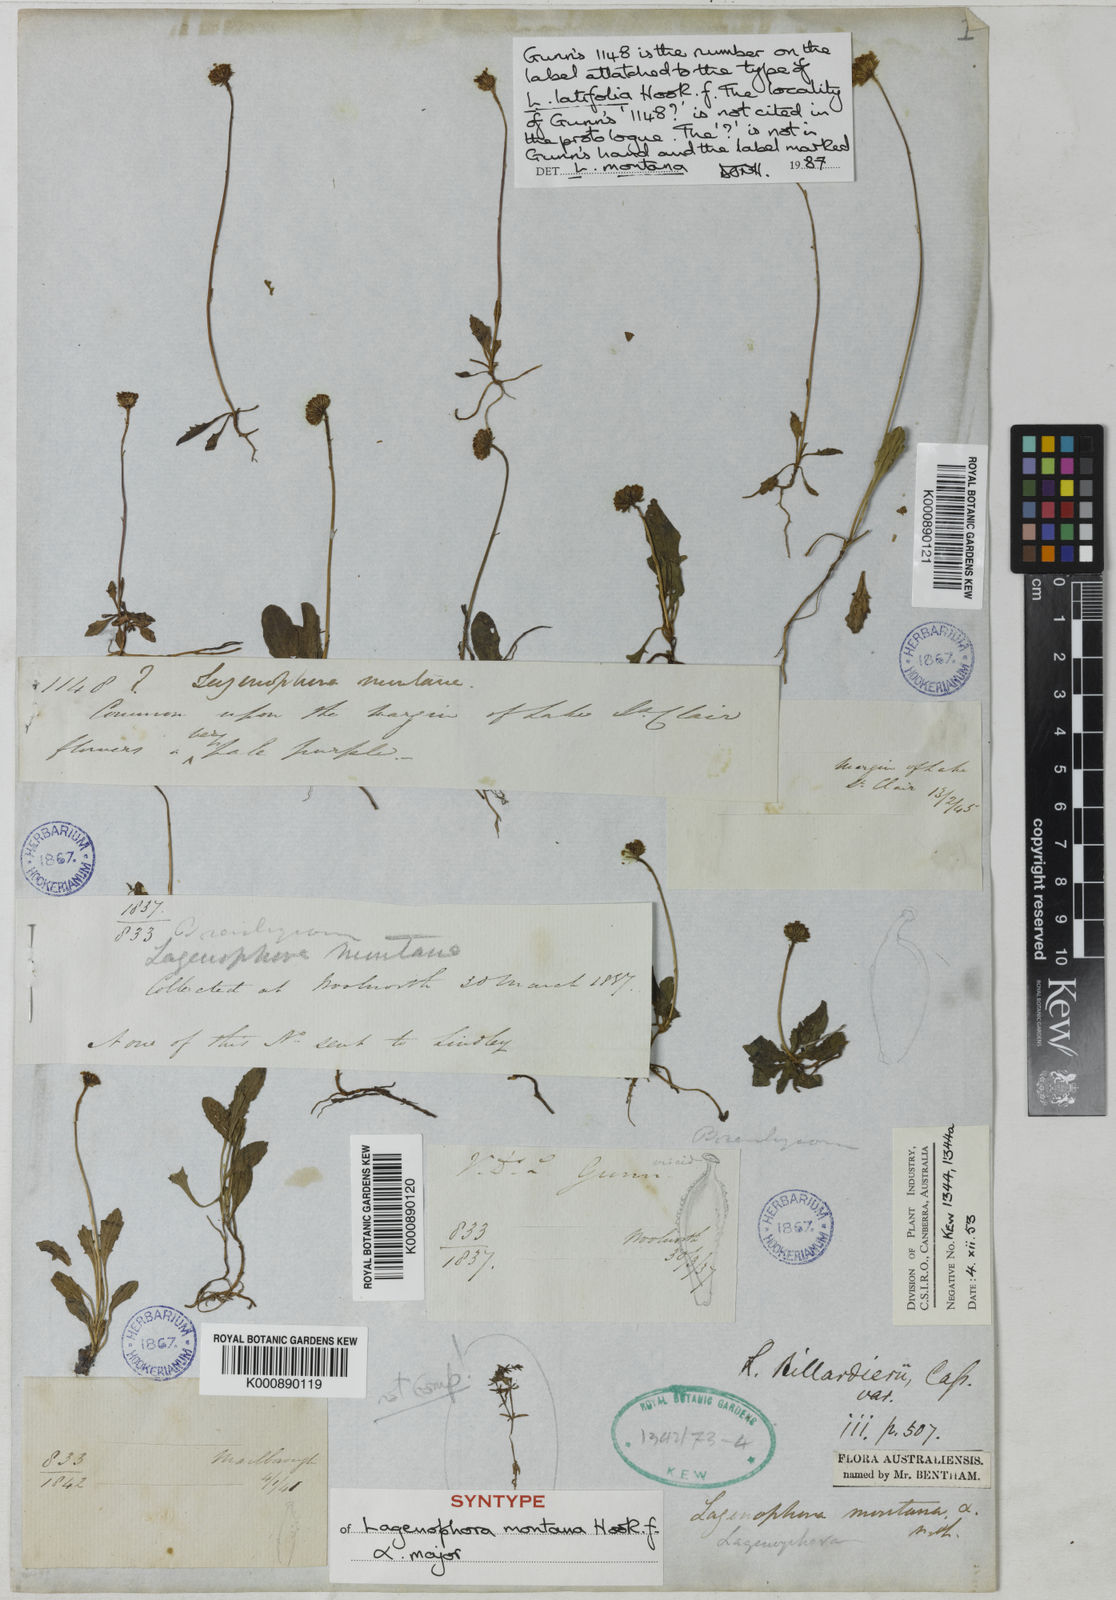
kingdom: Plantae
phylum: Tracheophyta
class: Magnoliopsida
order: Asterales
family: Asteraceae
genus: Lagenophora
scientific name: Lagenophora stipitata
